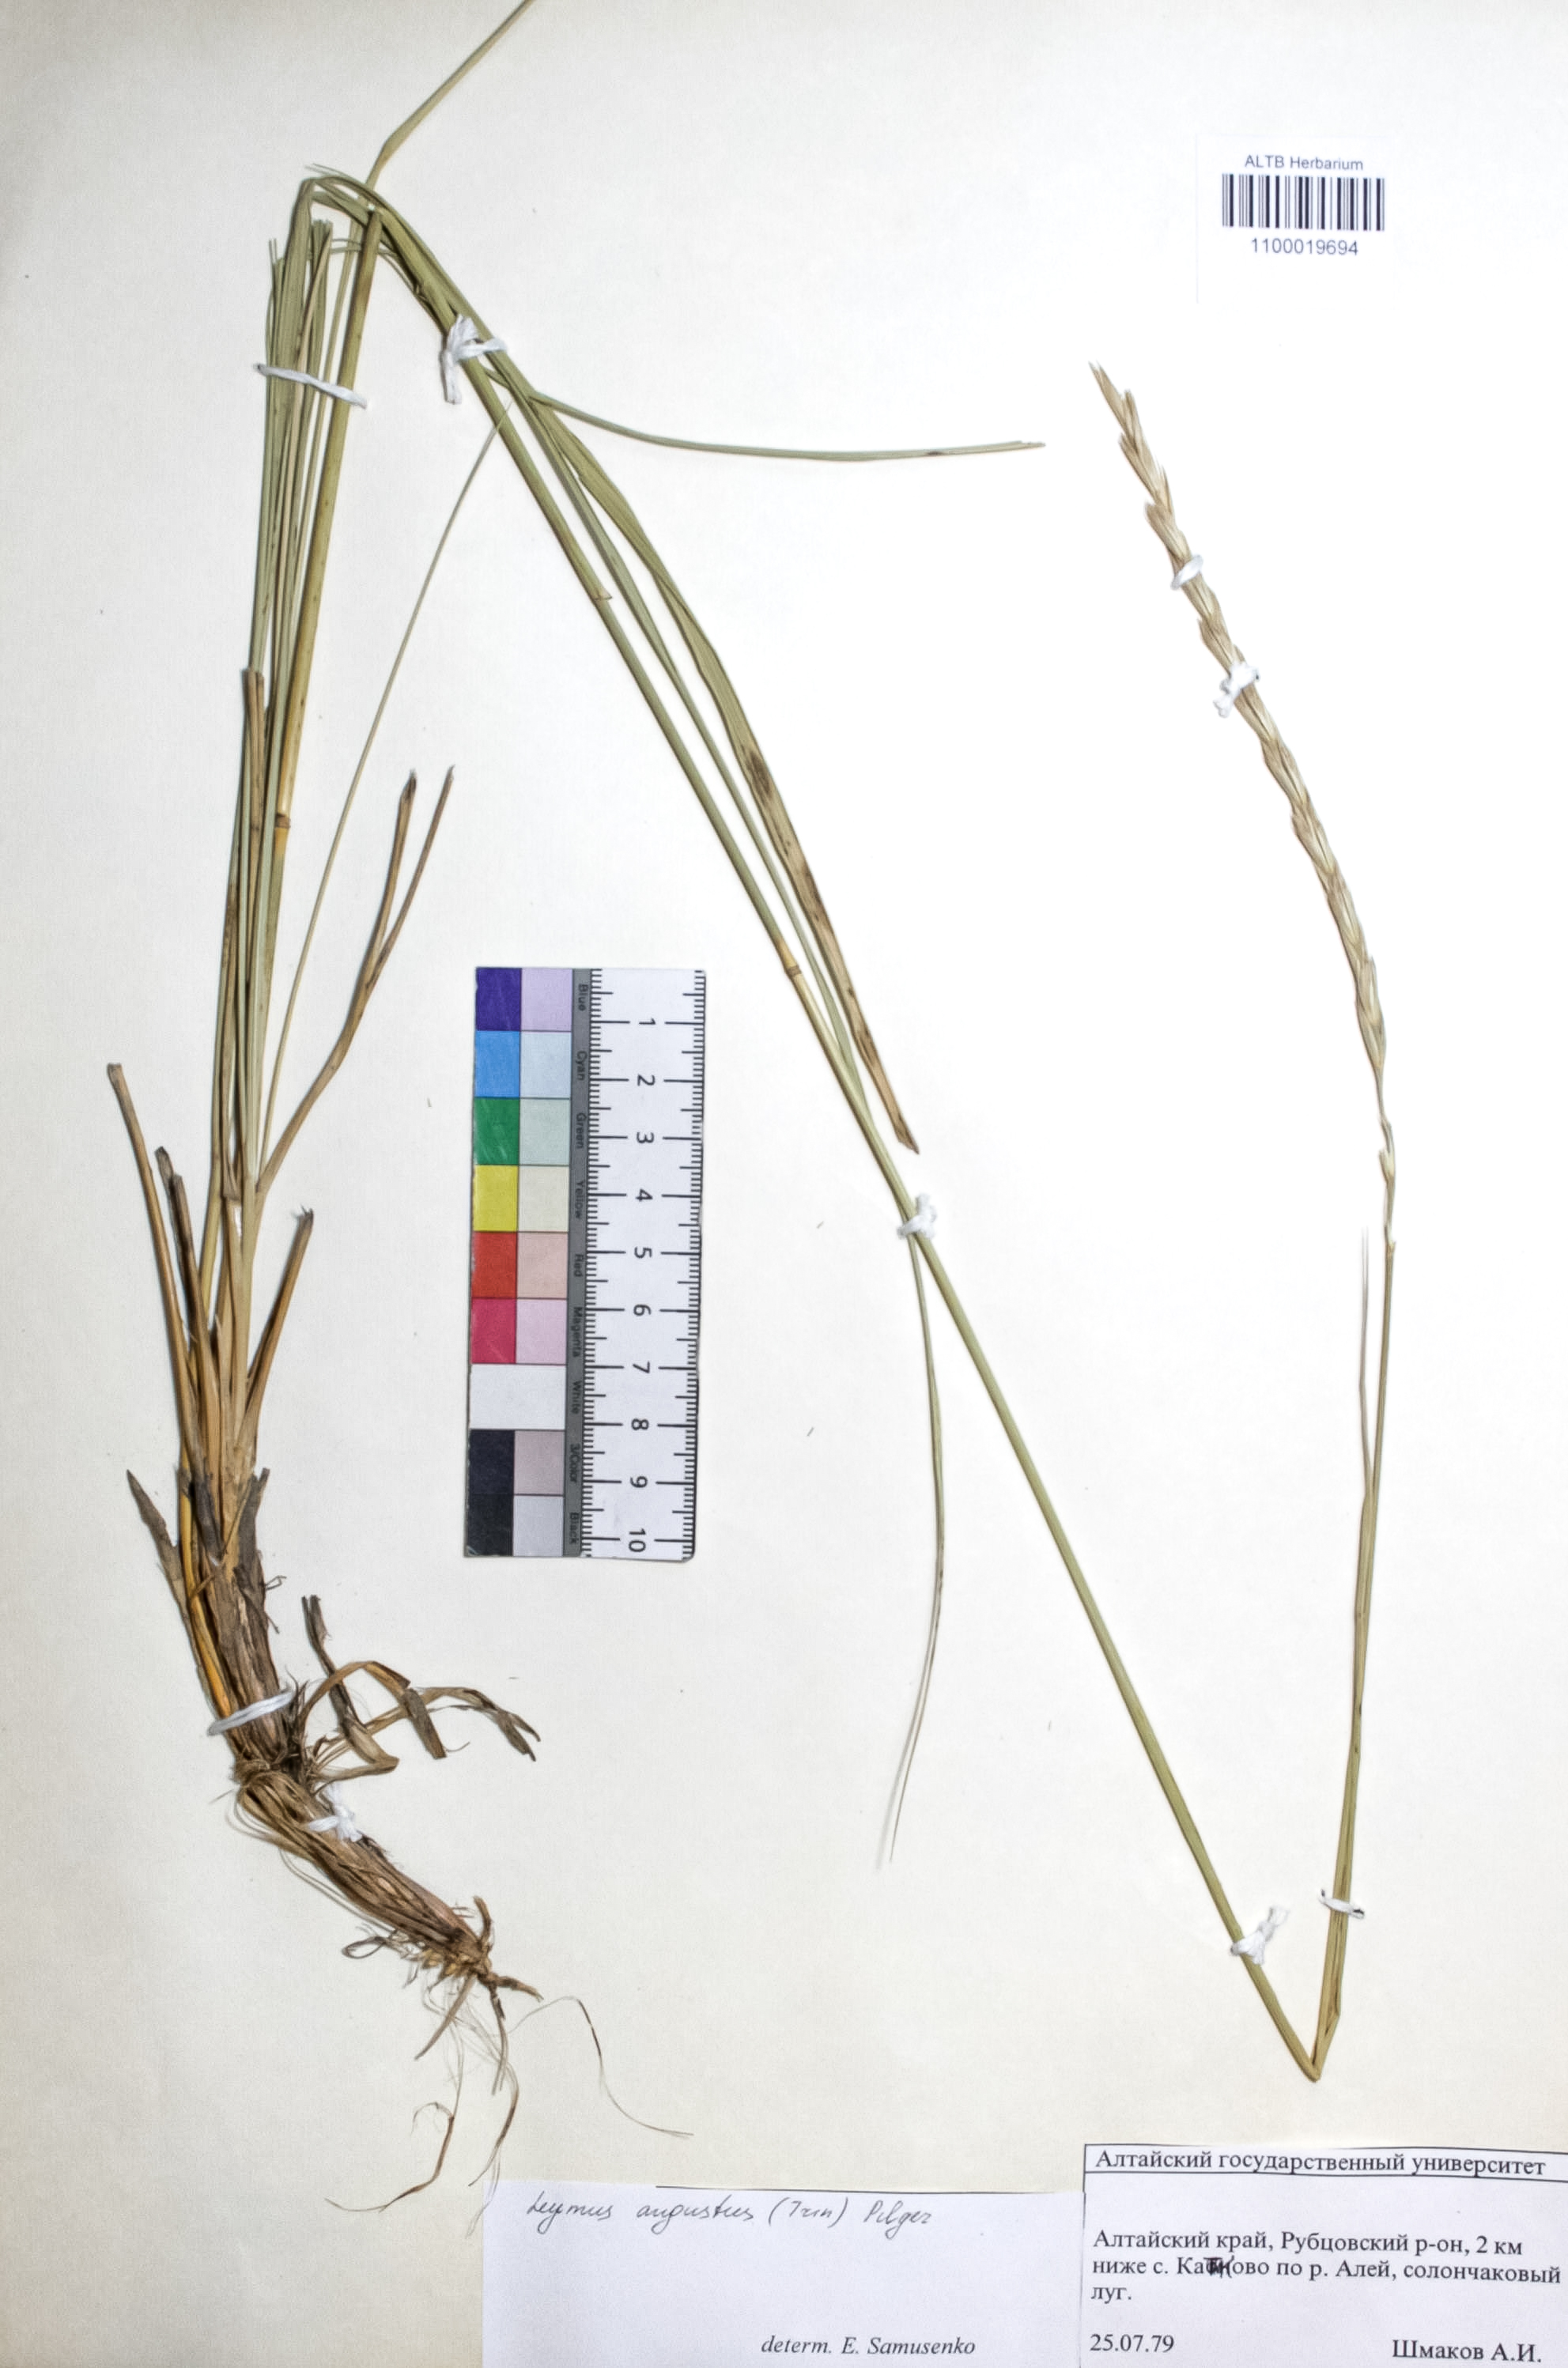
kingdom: Plantae
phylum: Tracheophyta
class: Liliopsida
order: Poales
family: Poaceae
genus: Leymus
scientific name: Leymus angustus
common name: Altai wildrye
